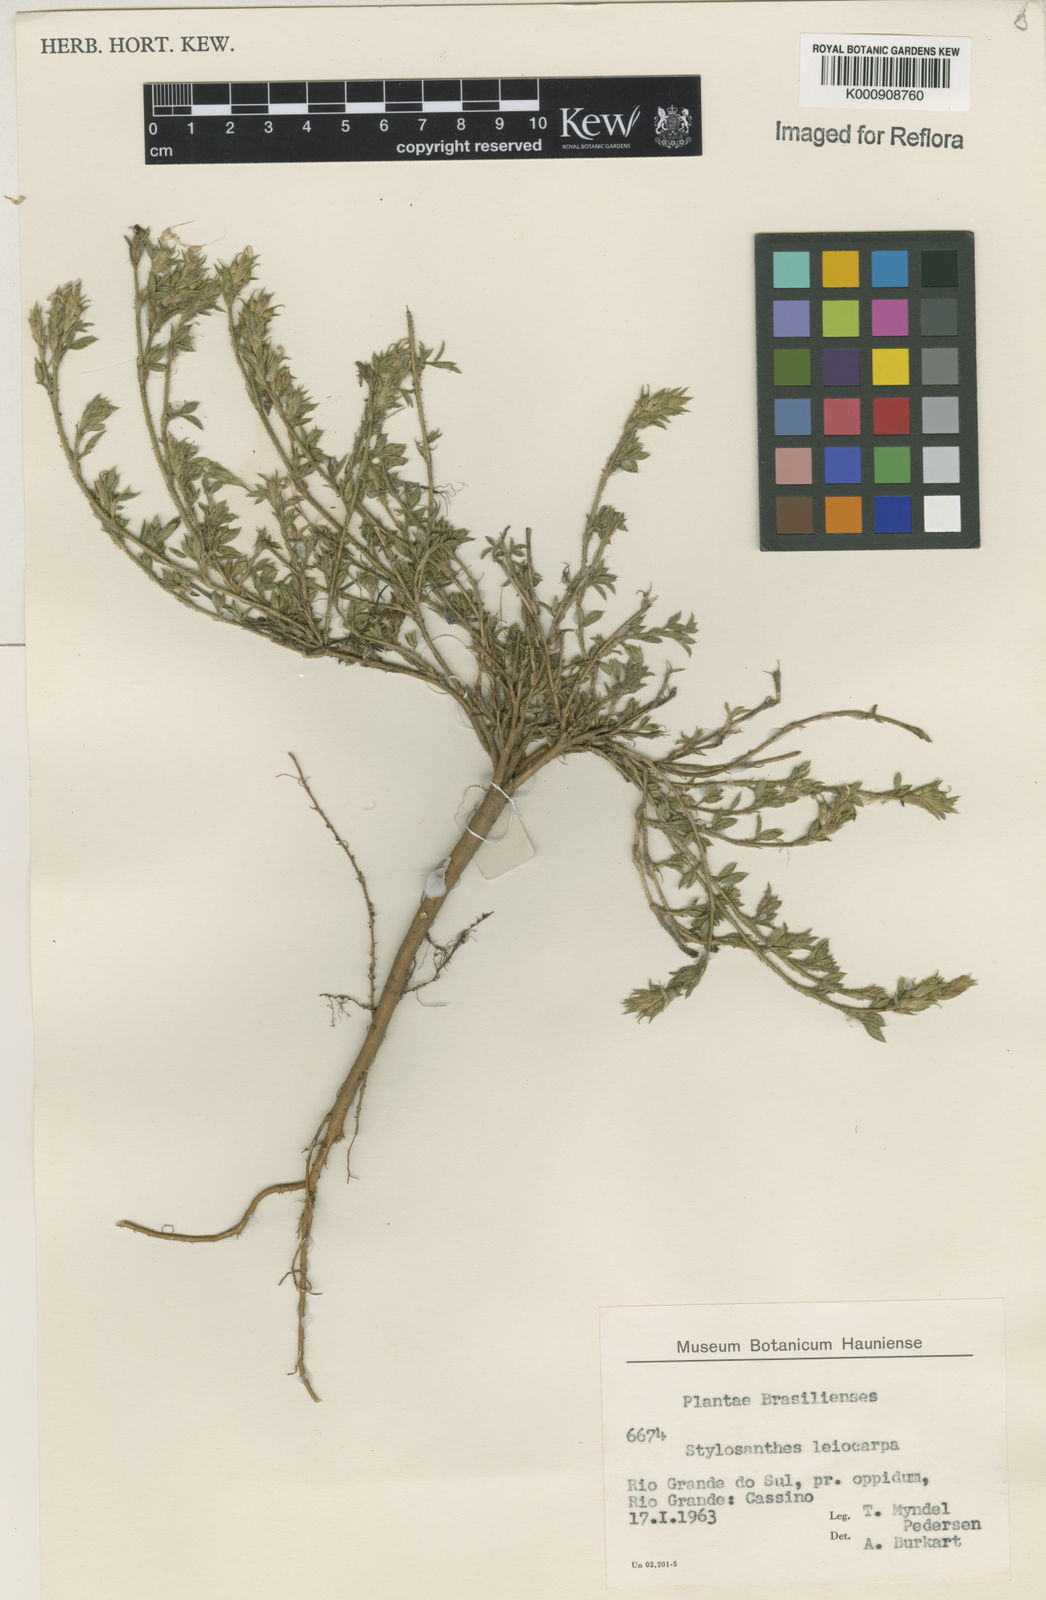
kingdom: Plantae
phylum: Tracheophyta
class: Magnoliopsida
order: Fabales
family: Fabaceae
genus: Stylosanthes
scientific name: Stylosanthes leiocarpa
